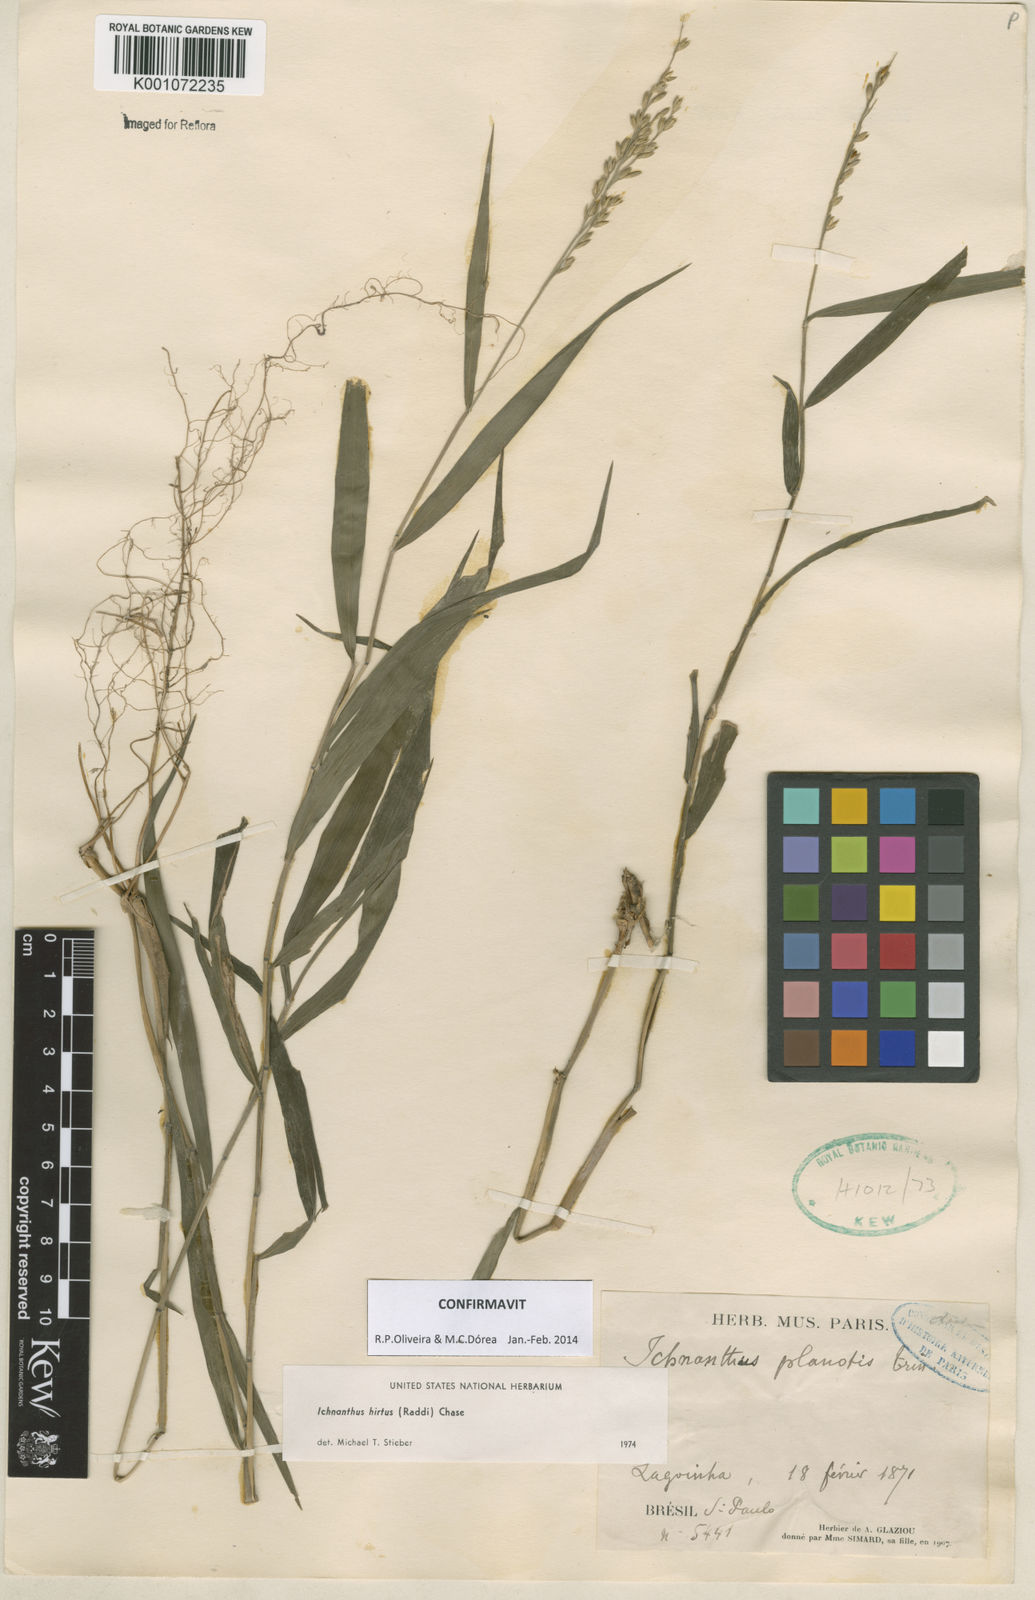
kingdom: Plantae
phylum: Tracheophyta
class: Liliopsida
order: Poales
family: Poaceae
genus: Ichnanthus
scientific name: Ichnanthus hirtus
